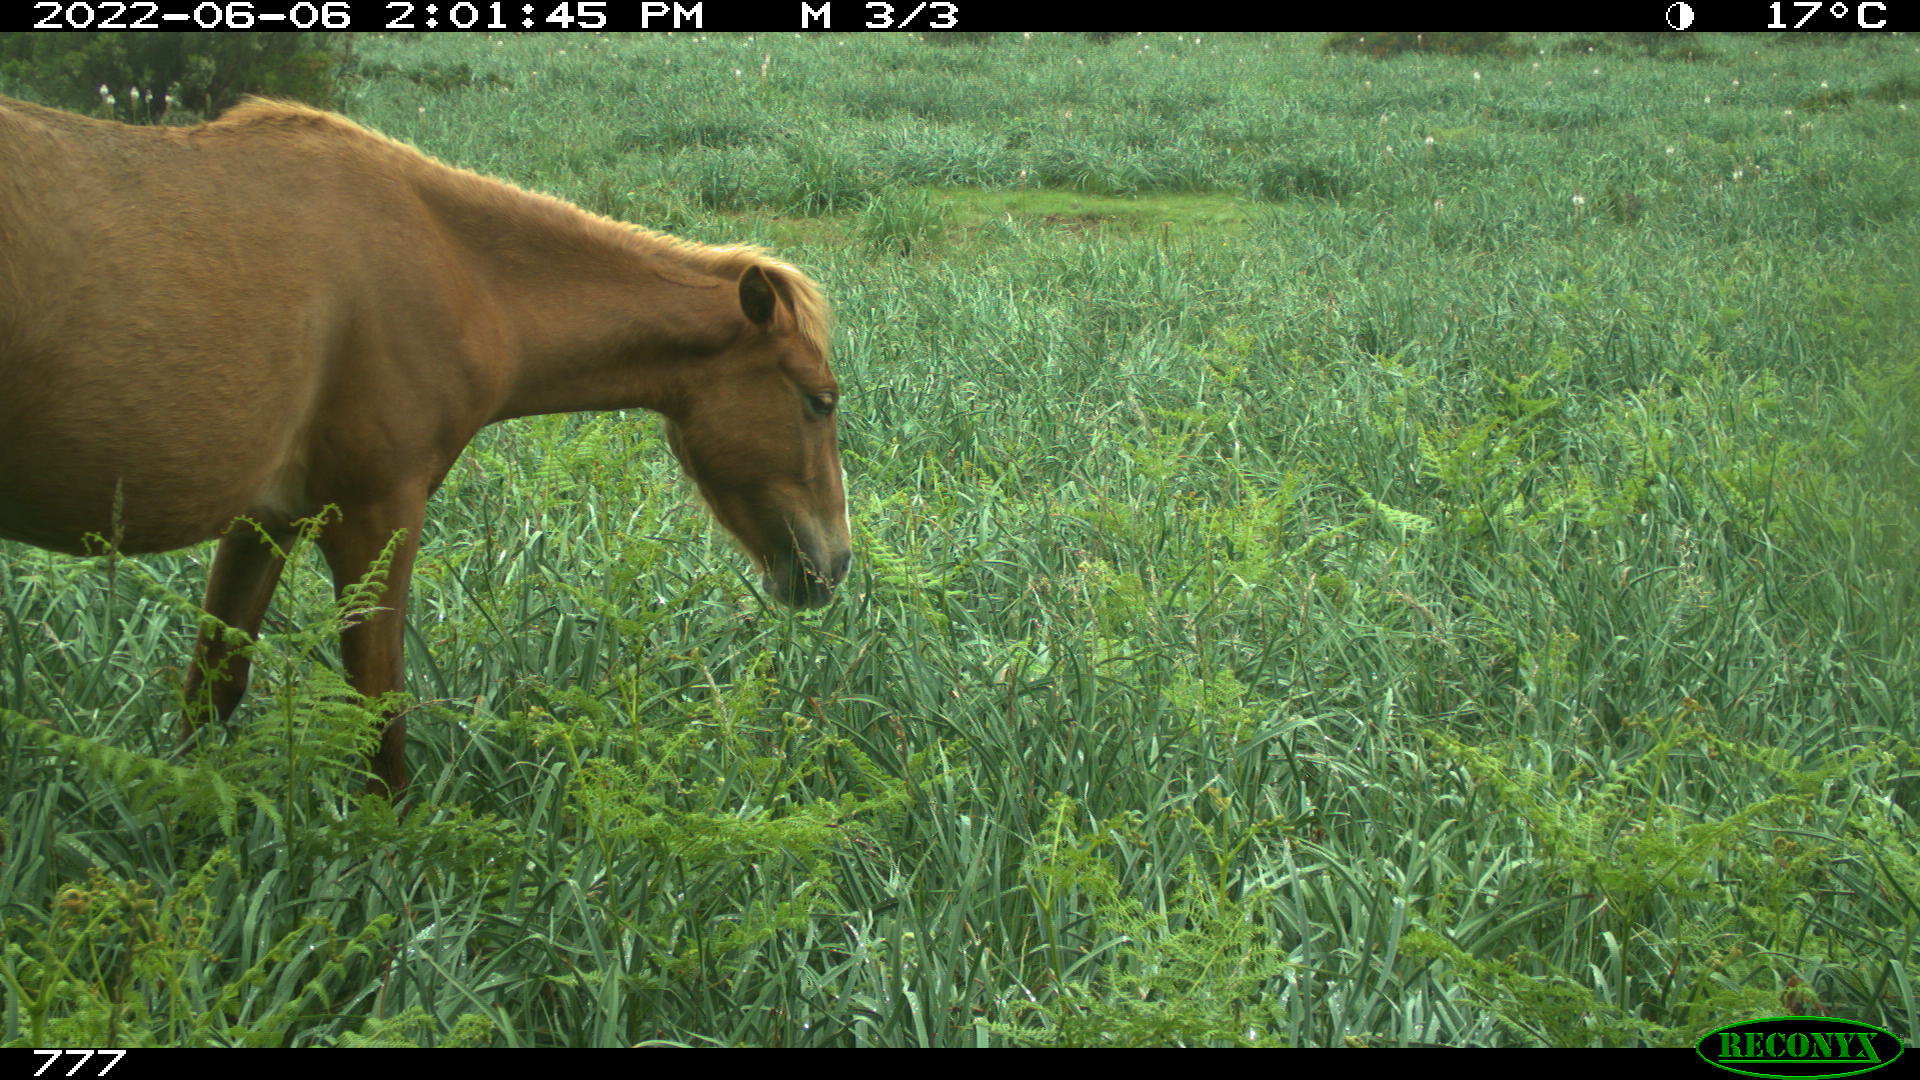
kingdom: Animalia
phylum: Chordata
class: Mammalia
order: Perissodactyla
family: Equidae
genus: Equus
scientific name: Equus caballus
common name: Horse
